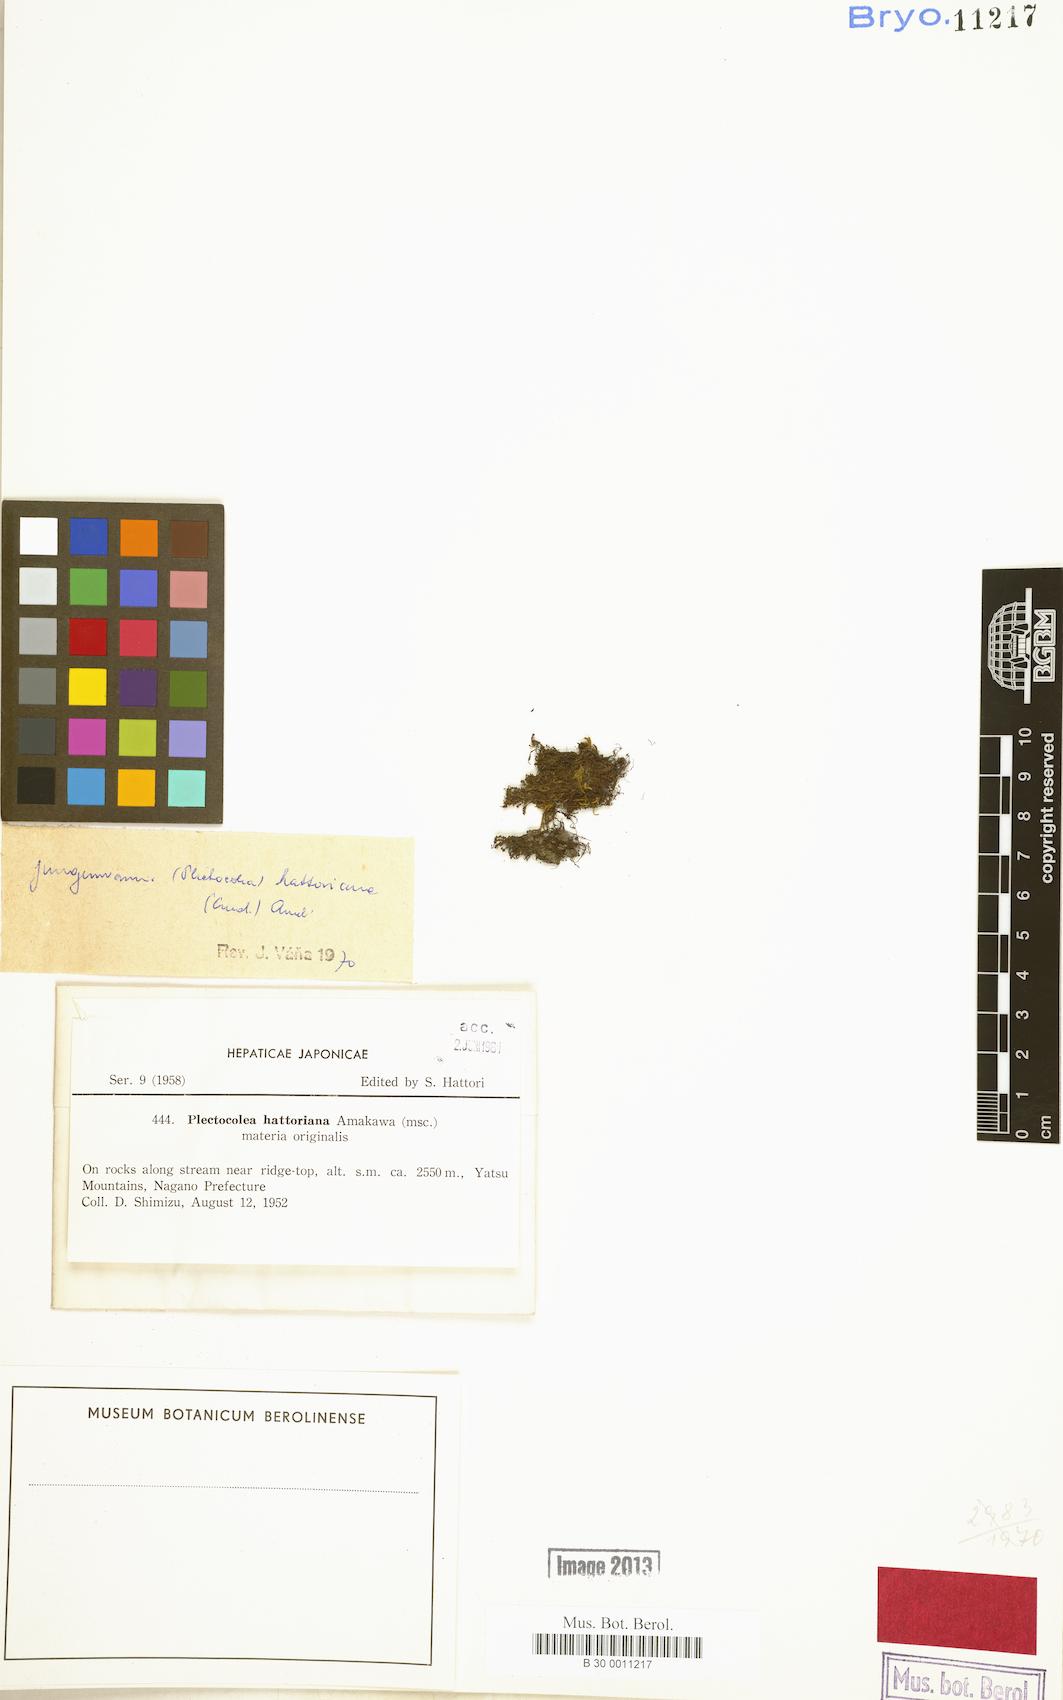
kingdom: Plantae
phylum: Marchantiophyta
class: Jungermanniopsida
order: Jungermanniales
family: Solenostomataceae
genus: Solenostoma
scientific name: Solenostoma hattorianum
